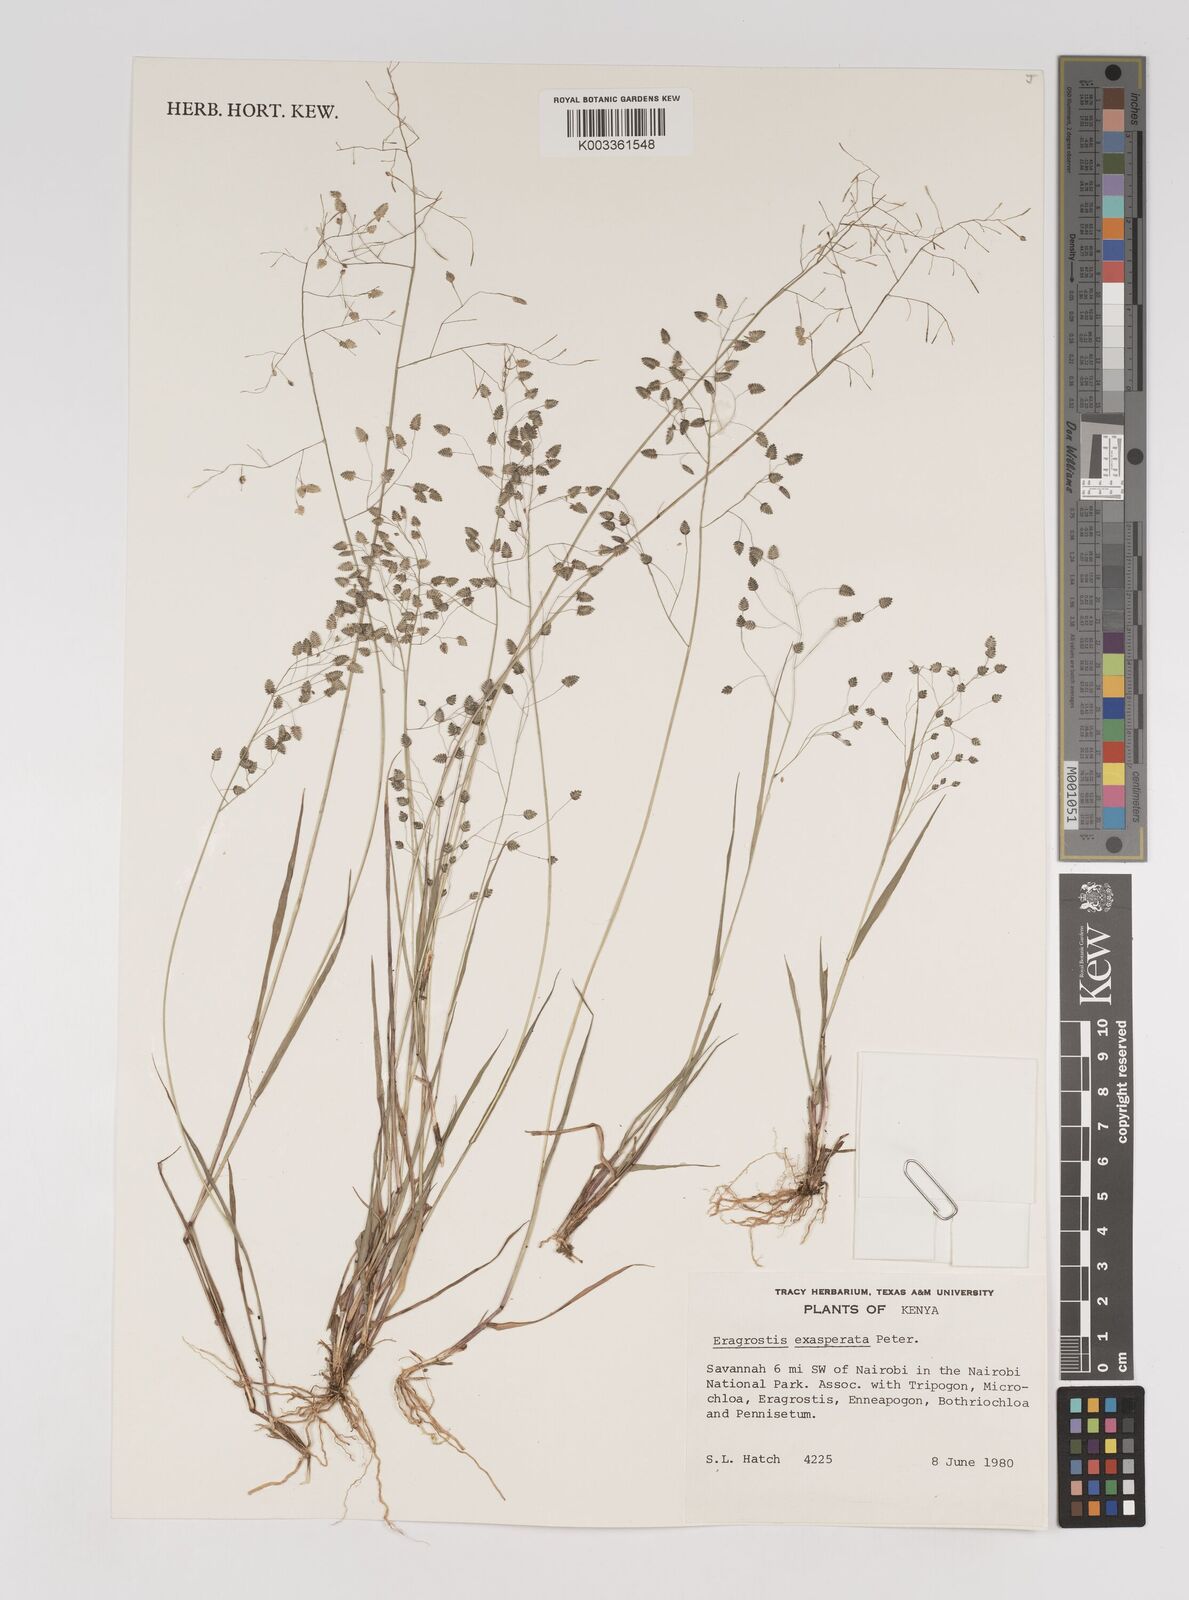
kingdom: Plantae
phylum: Tracheophyta
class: Liliopsida
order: Poales
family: Poaceae
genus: Eragrostis
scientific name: Eragrostis exasperata
